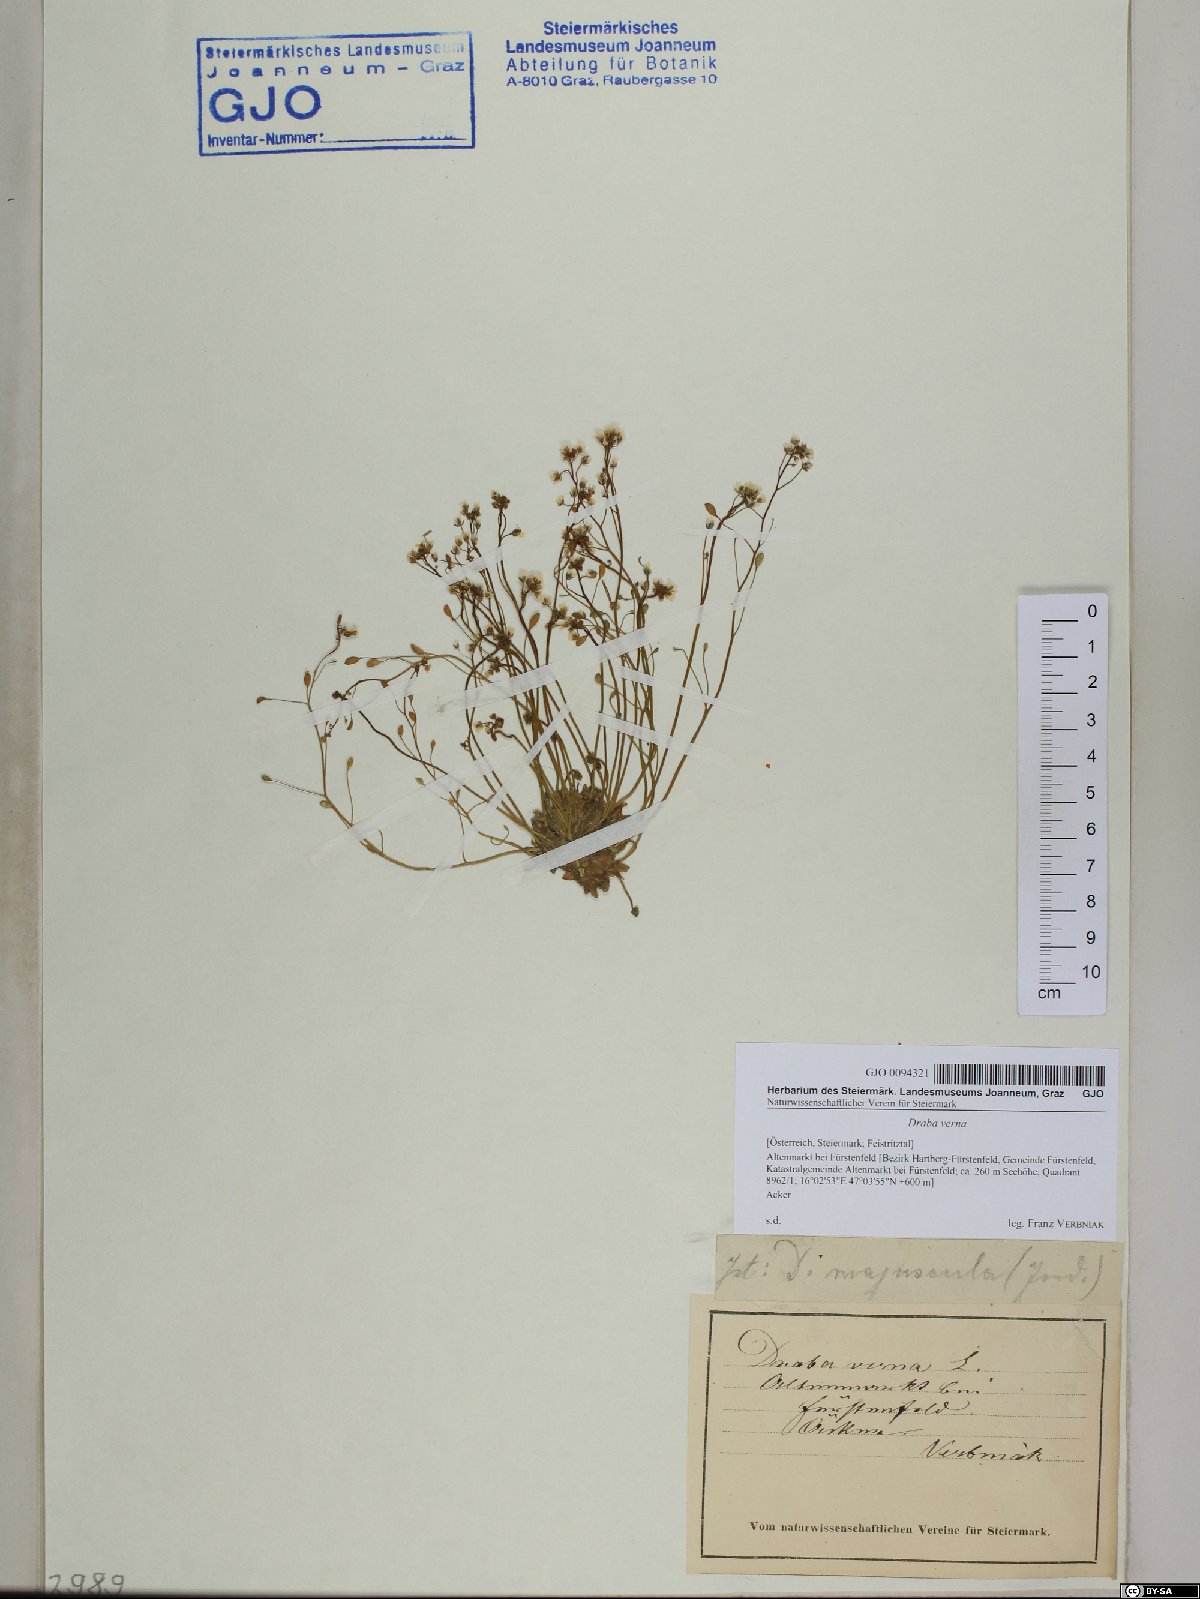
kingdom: Plantae
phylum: Tracheophyta
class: Magnoliopsida
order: Brassicales
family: Brassicaceae
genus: Draba
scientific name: Draba verna
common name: Spring draba
